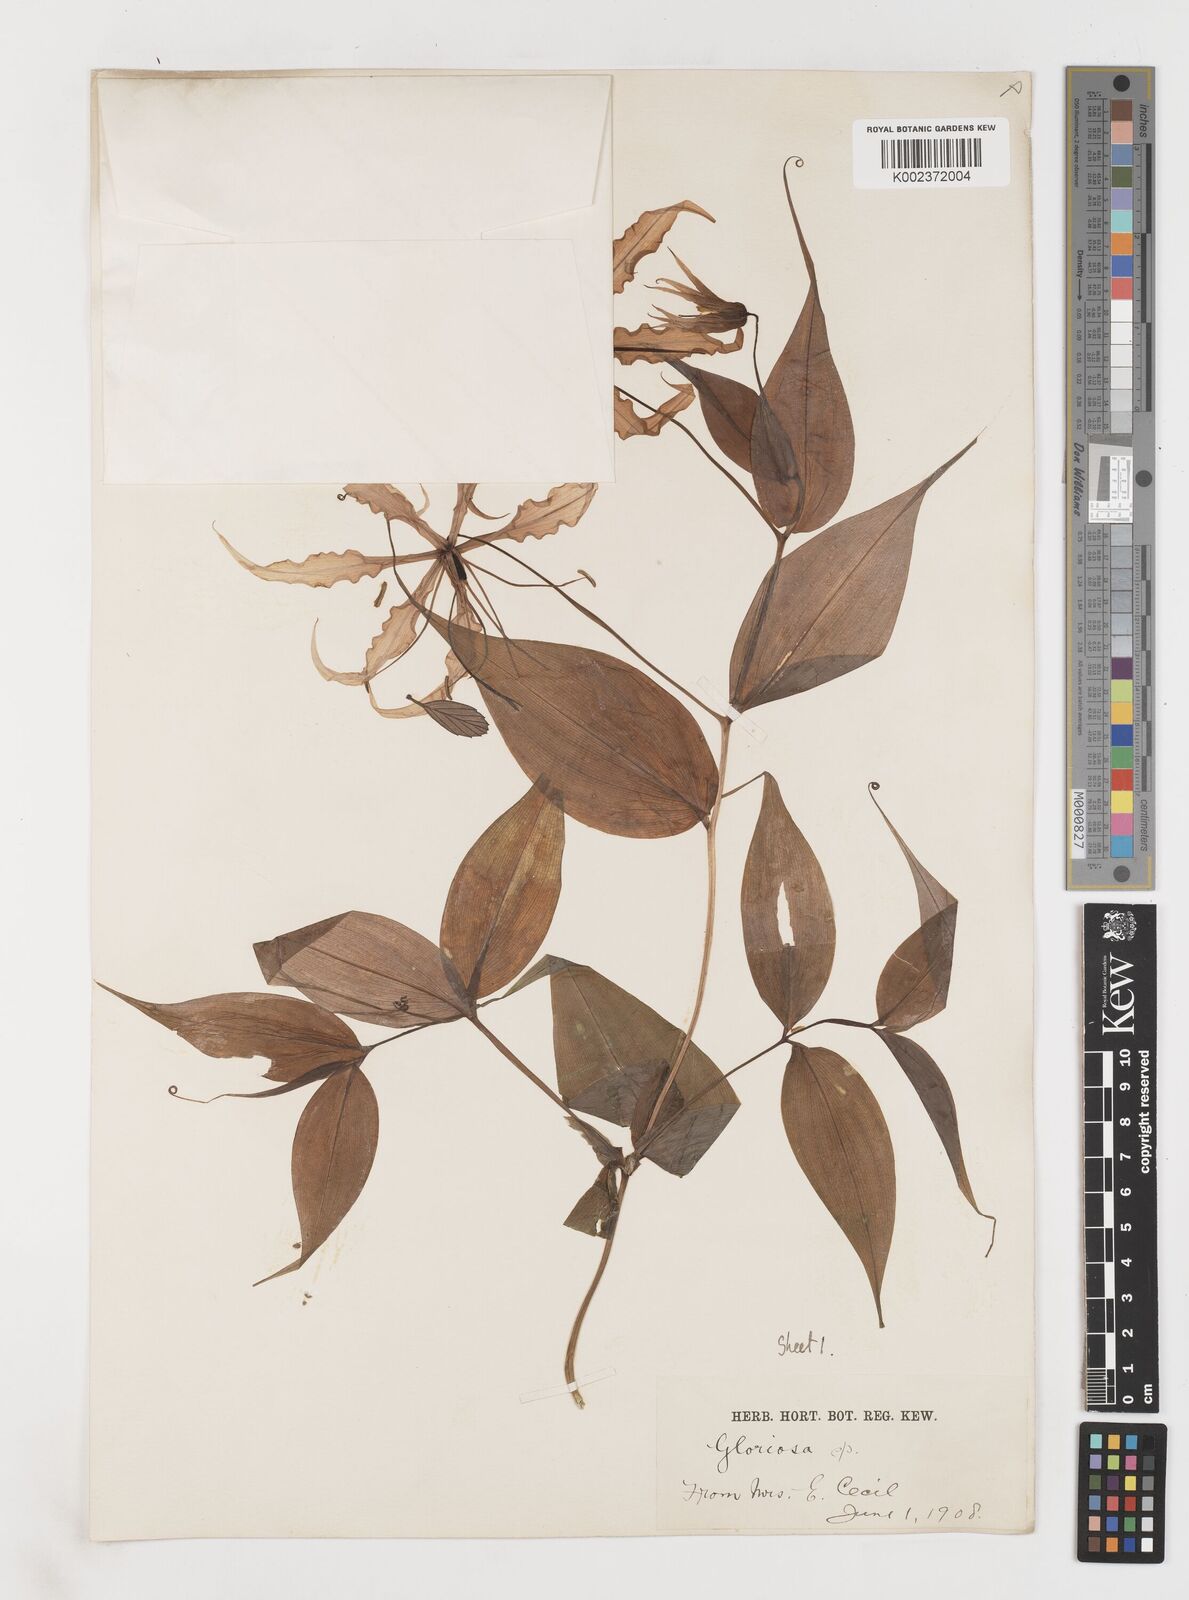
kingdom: Plantae
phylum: Tracheophyta
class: Liliopsida
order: Liliales
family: Colchicaceae
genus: Gloriosa
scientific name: Gloriosa superba
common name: Flame lily
